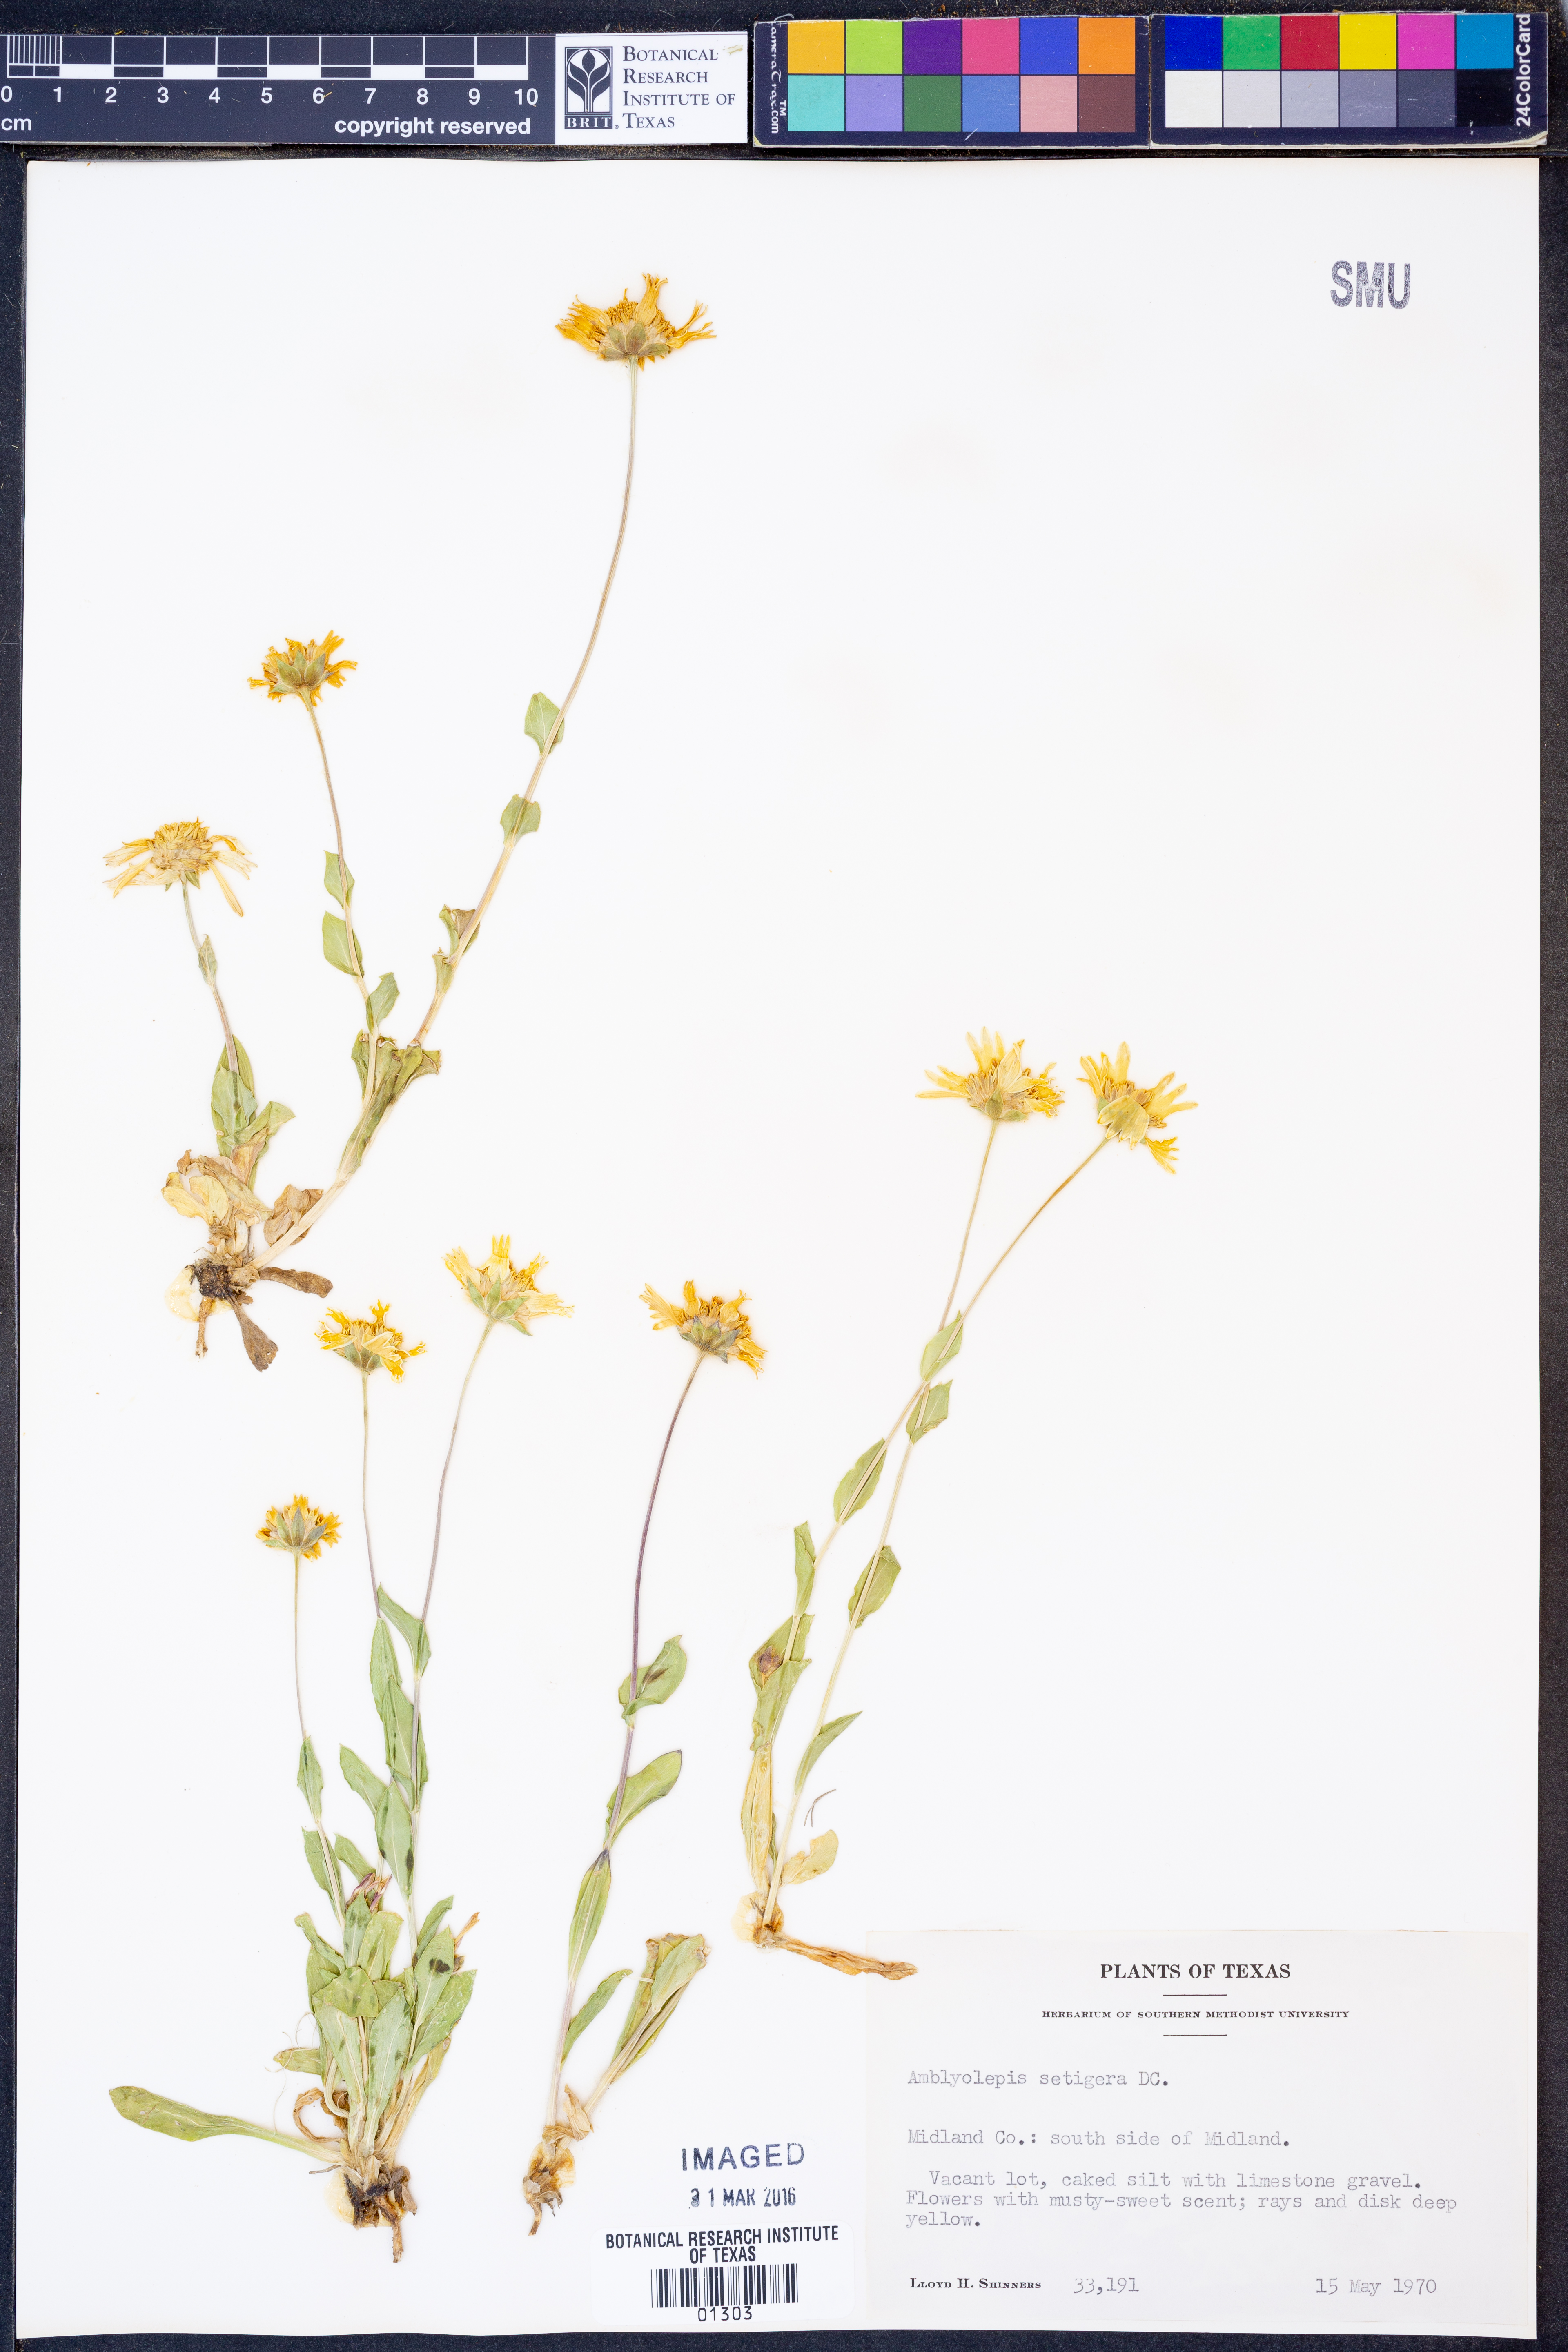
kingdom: Plantae
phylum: Tracheophyta
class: Magnoliopsida
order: Asterales
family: Asteraceae
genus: Amblyolepis
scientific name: Amblyolepis setigera
